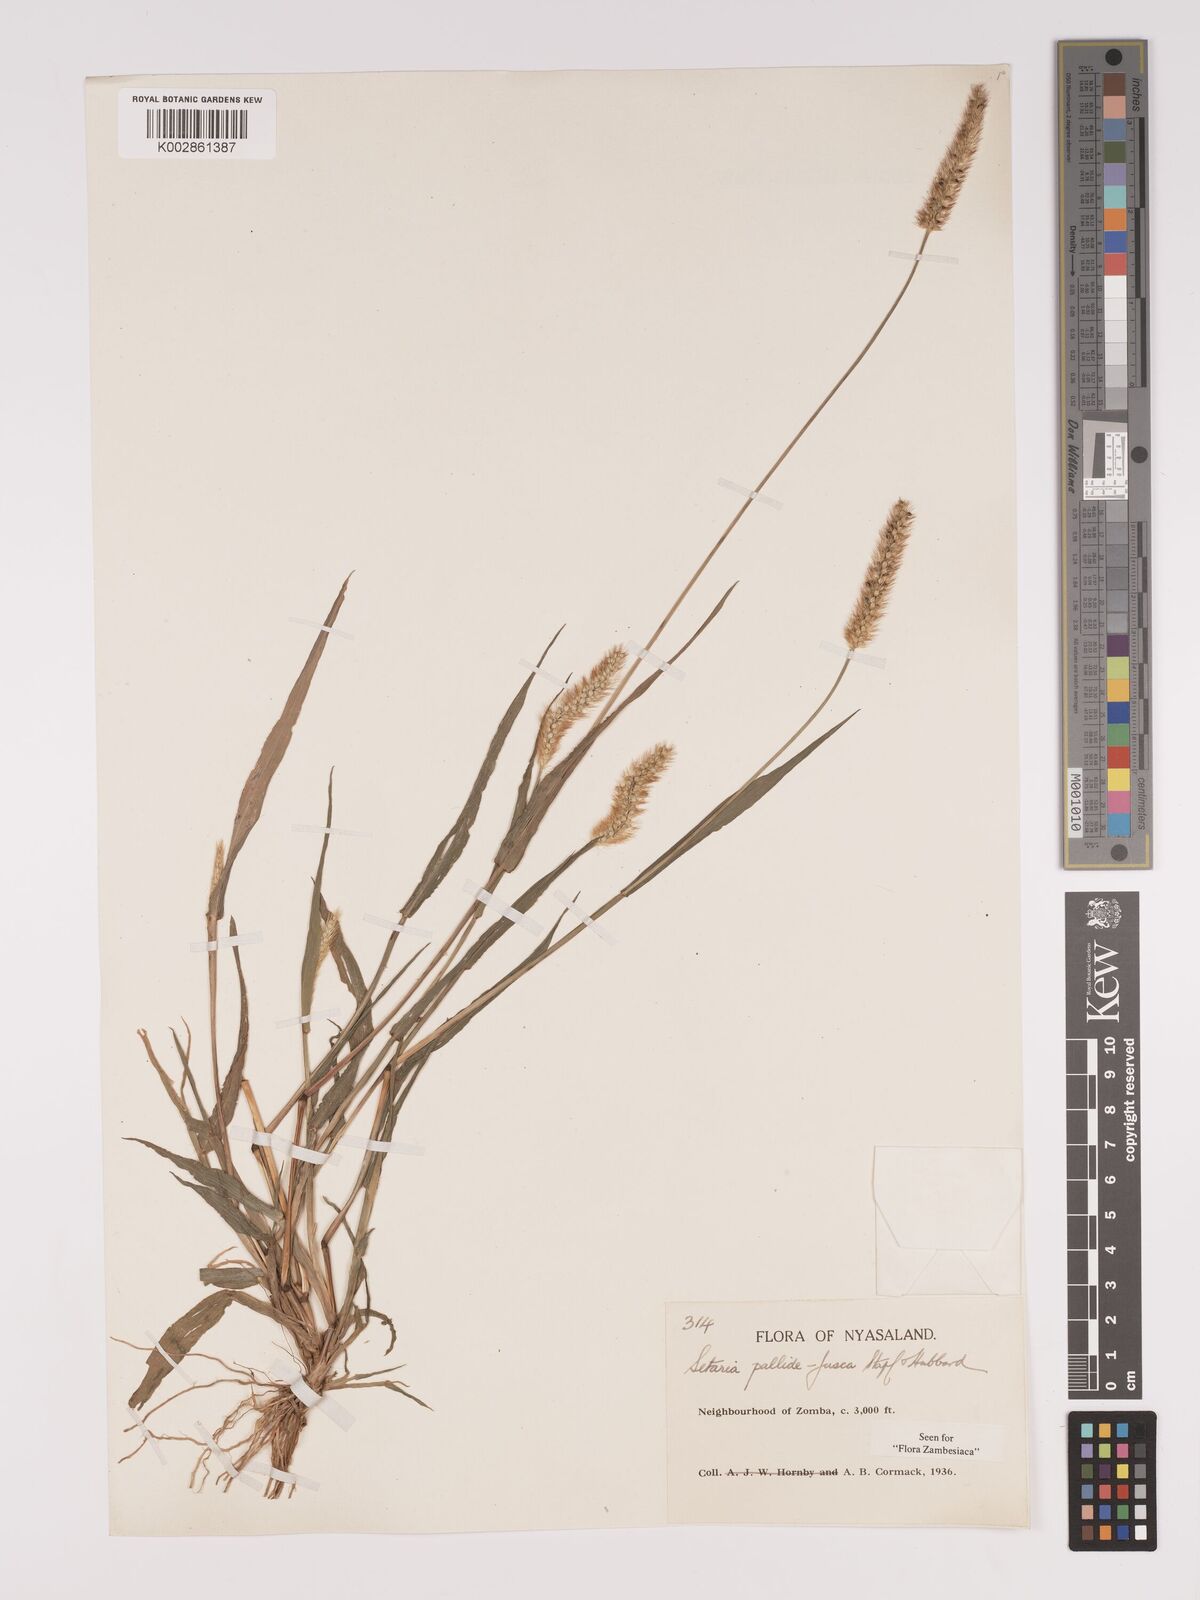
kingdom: Plantae
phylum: Tracheophyta
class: Liliopsida
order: Poales
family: Poaceae
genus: Setaria
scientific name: Setaria pumila
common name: Yellow bristle-grass
